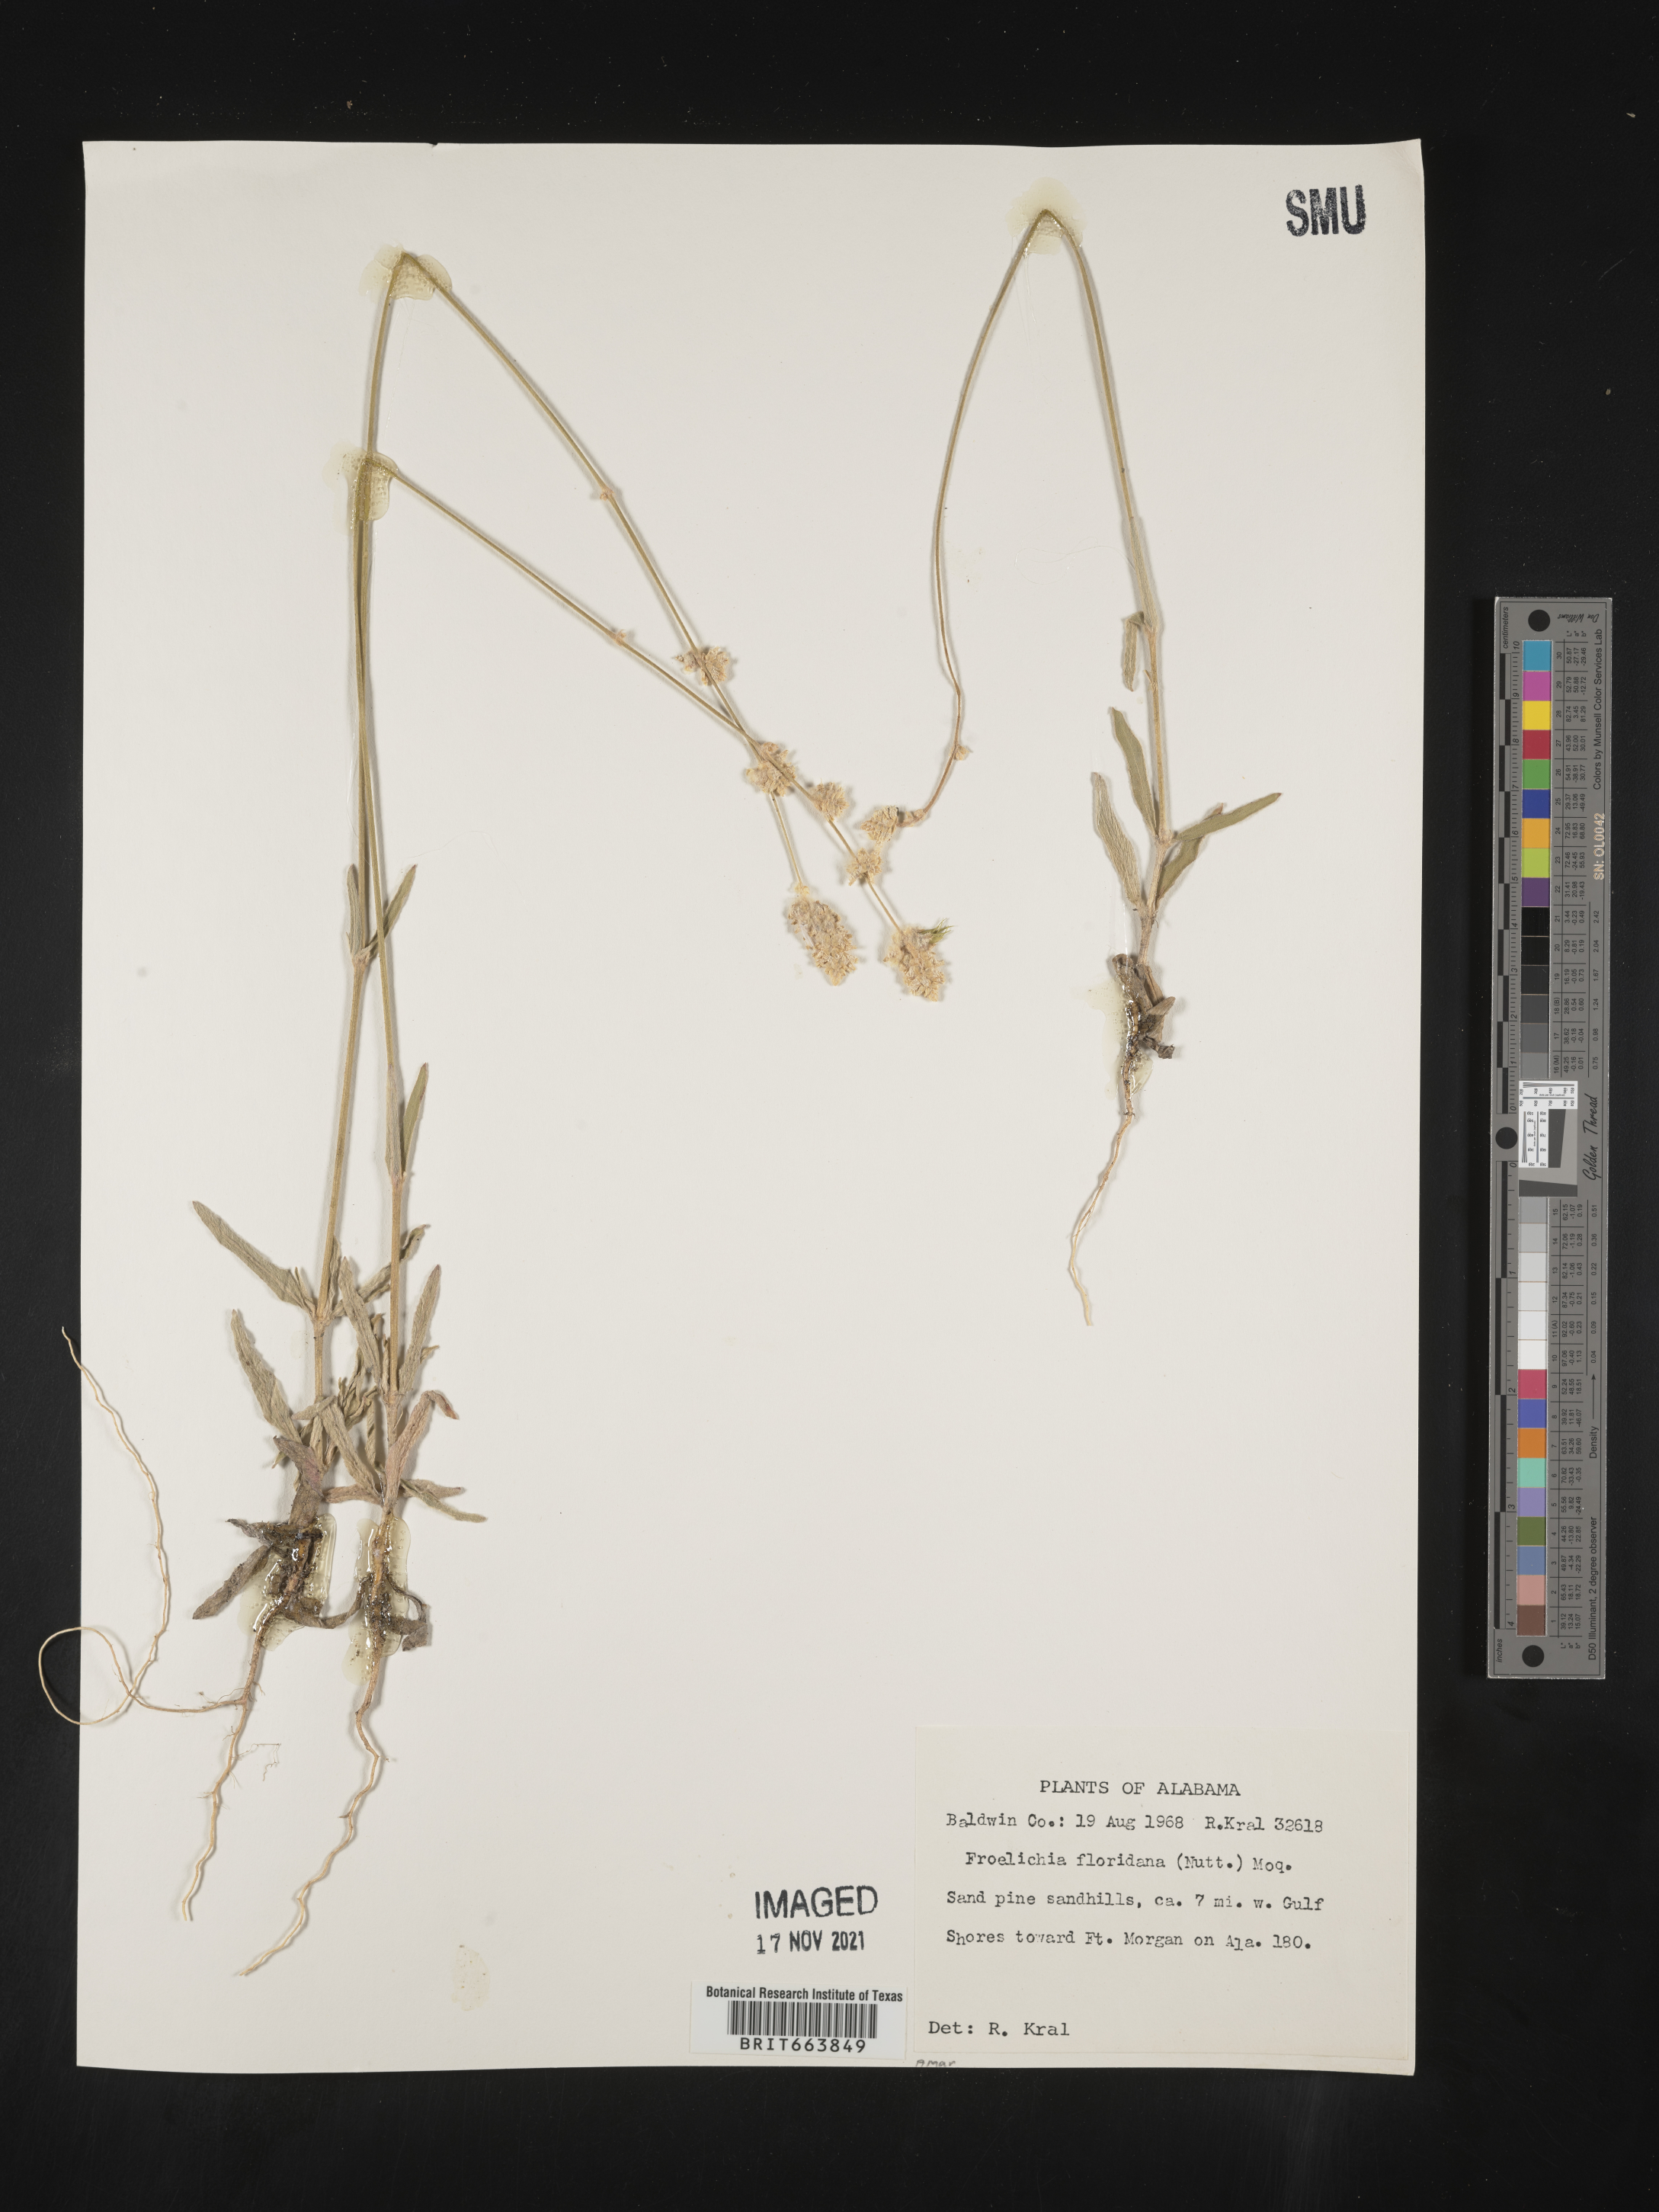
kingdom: Plantae
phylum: Tracheophyta
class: Magnoliopsida
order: Caryophyllales
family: Amaranthaceae
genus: Froelichia
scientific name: Froelichia floridana
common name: Florida snake-cotton
